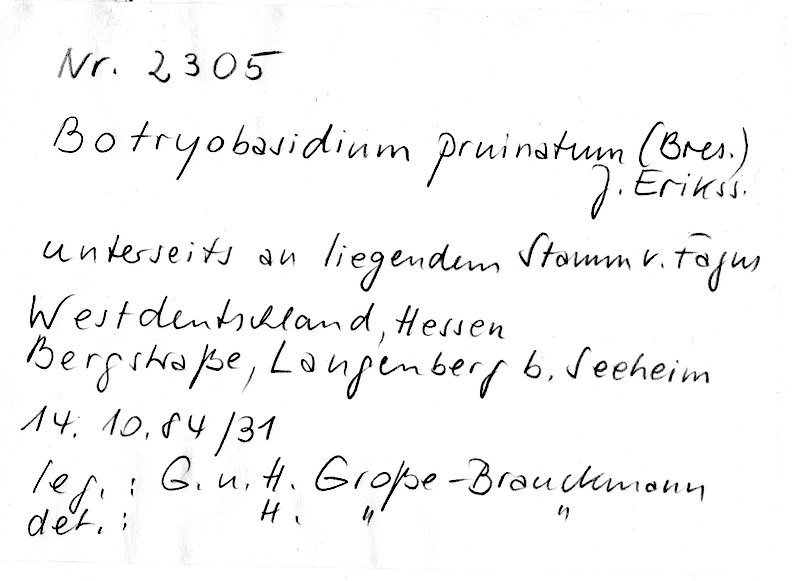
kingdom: Plantae
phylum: Tracheophyta
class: Magnoliopsida
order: Fagales
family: Fagaceae
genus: Fagus
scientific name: Fagus sylvatica
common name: Beech
